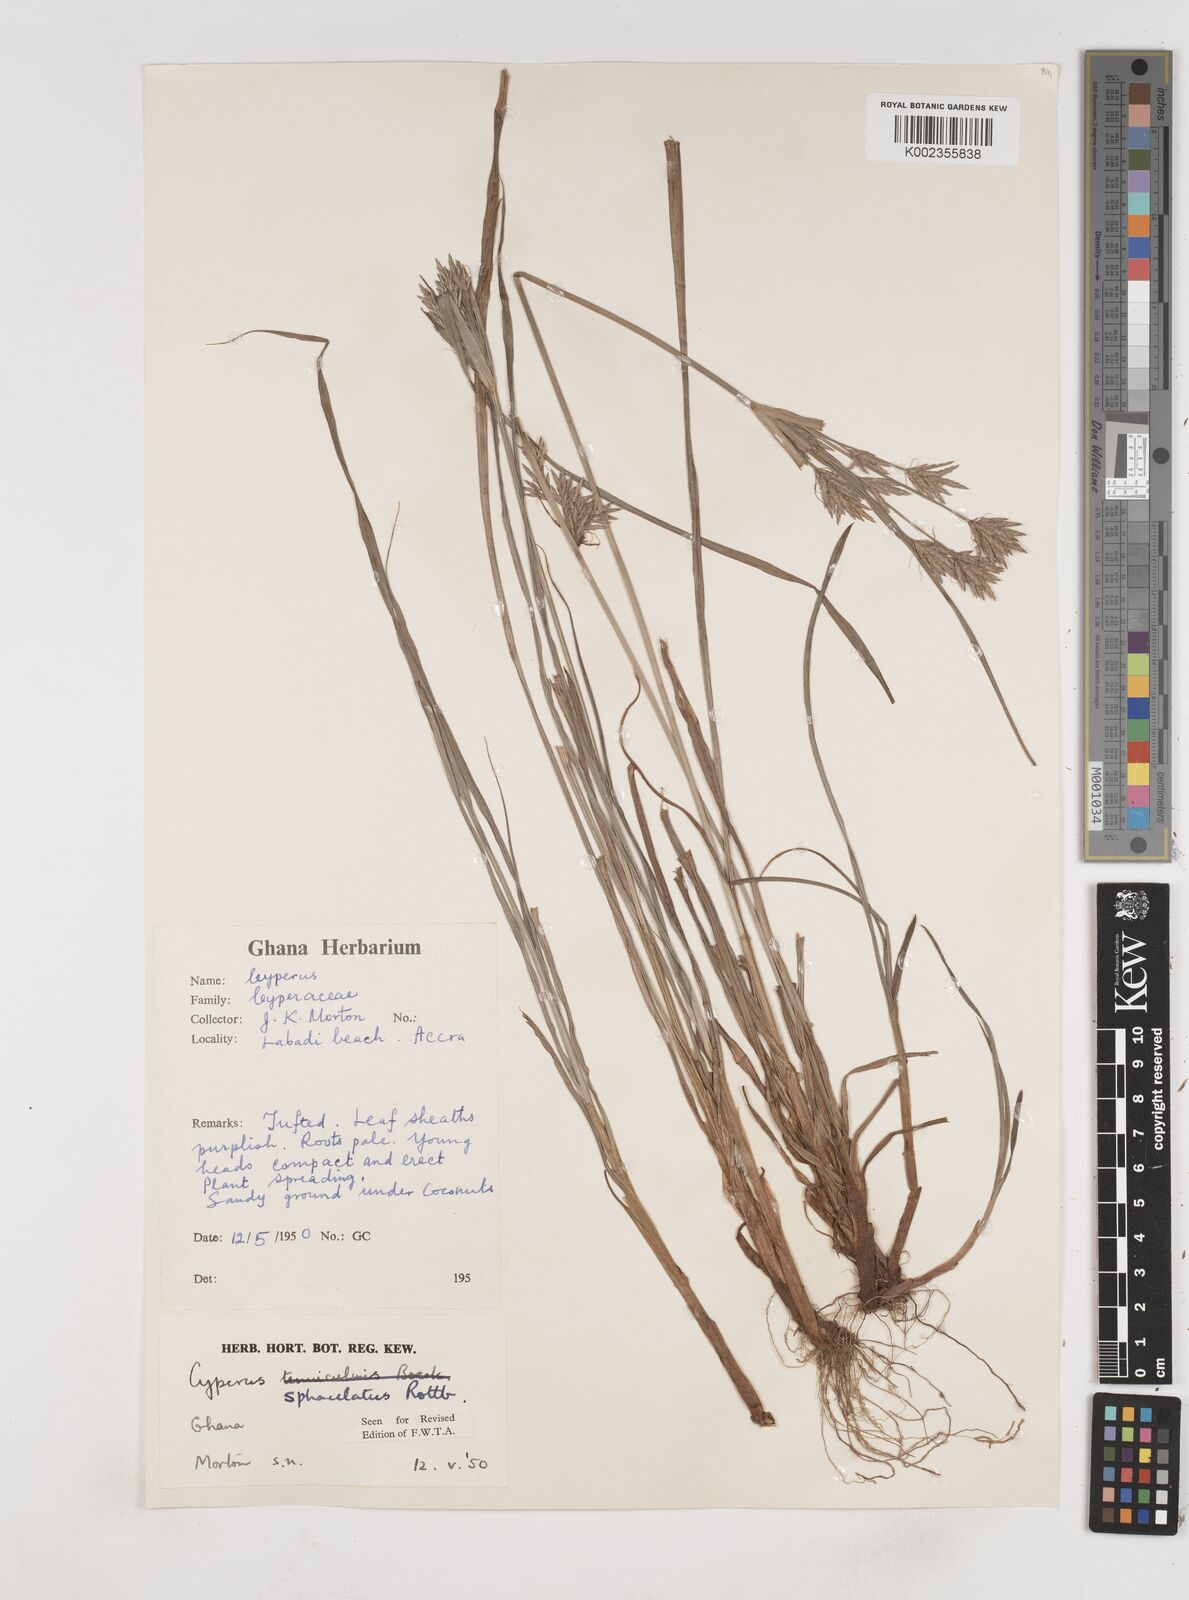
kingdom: Plantae
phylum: Tracheophyta
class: Liliopsida
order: Poales
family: Cyperaceae
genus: Cyperus
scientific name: Cyperus sphacelatus
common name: Roadside flatsedge
